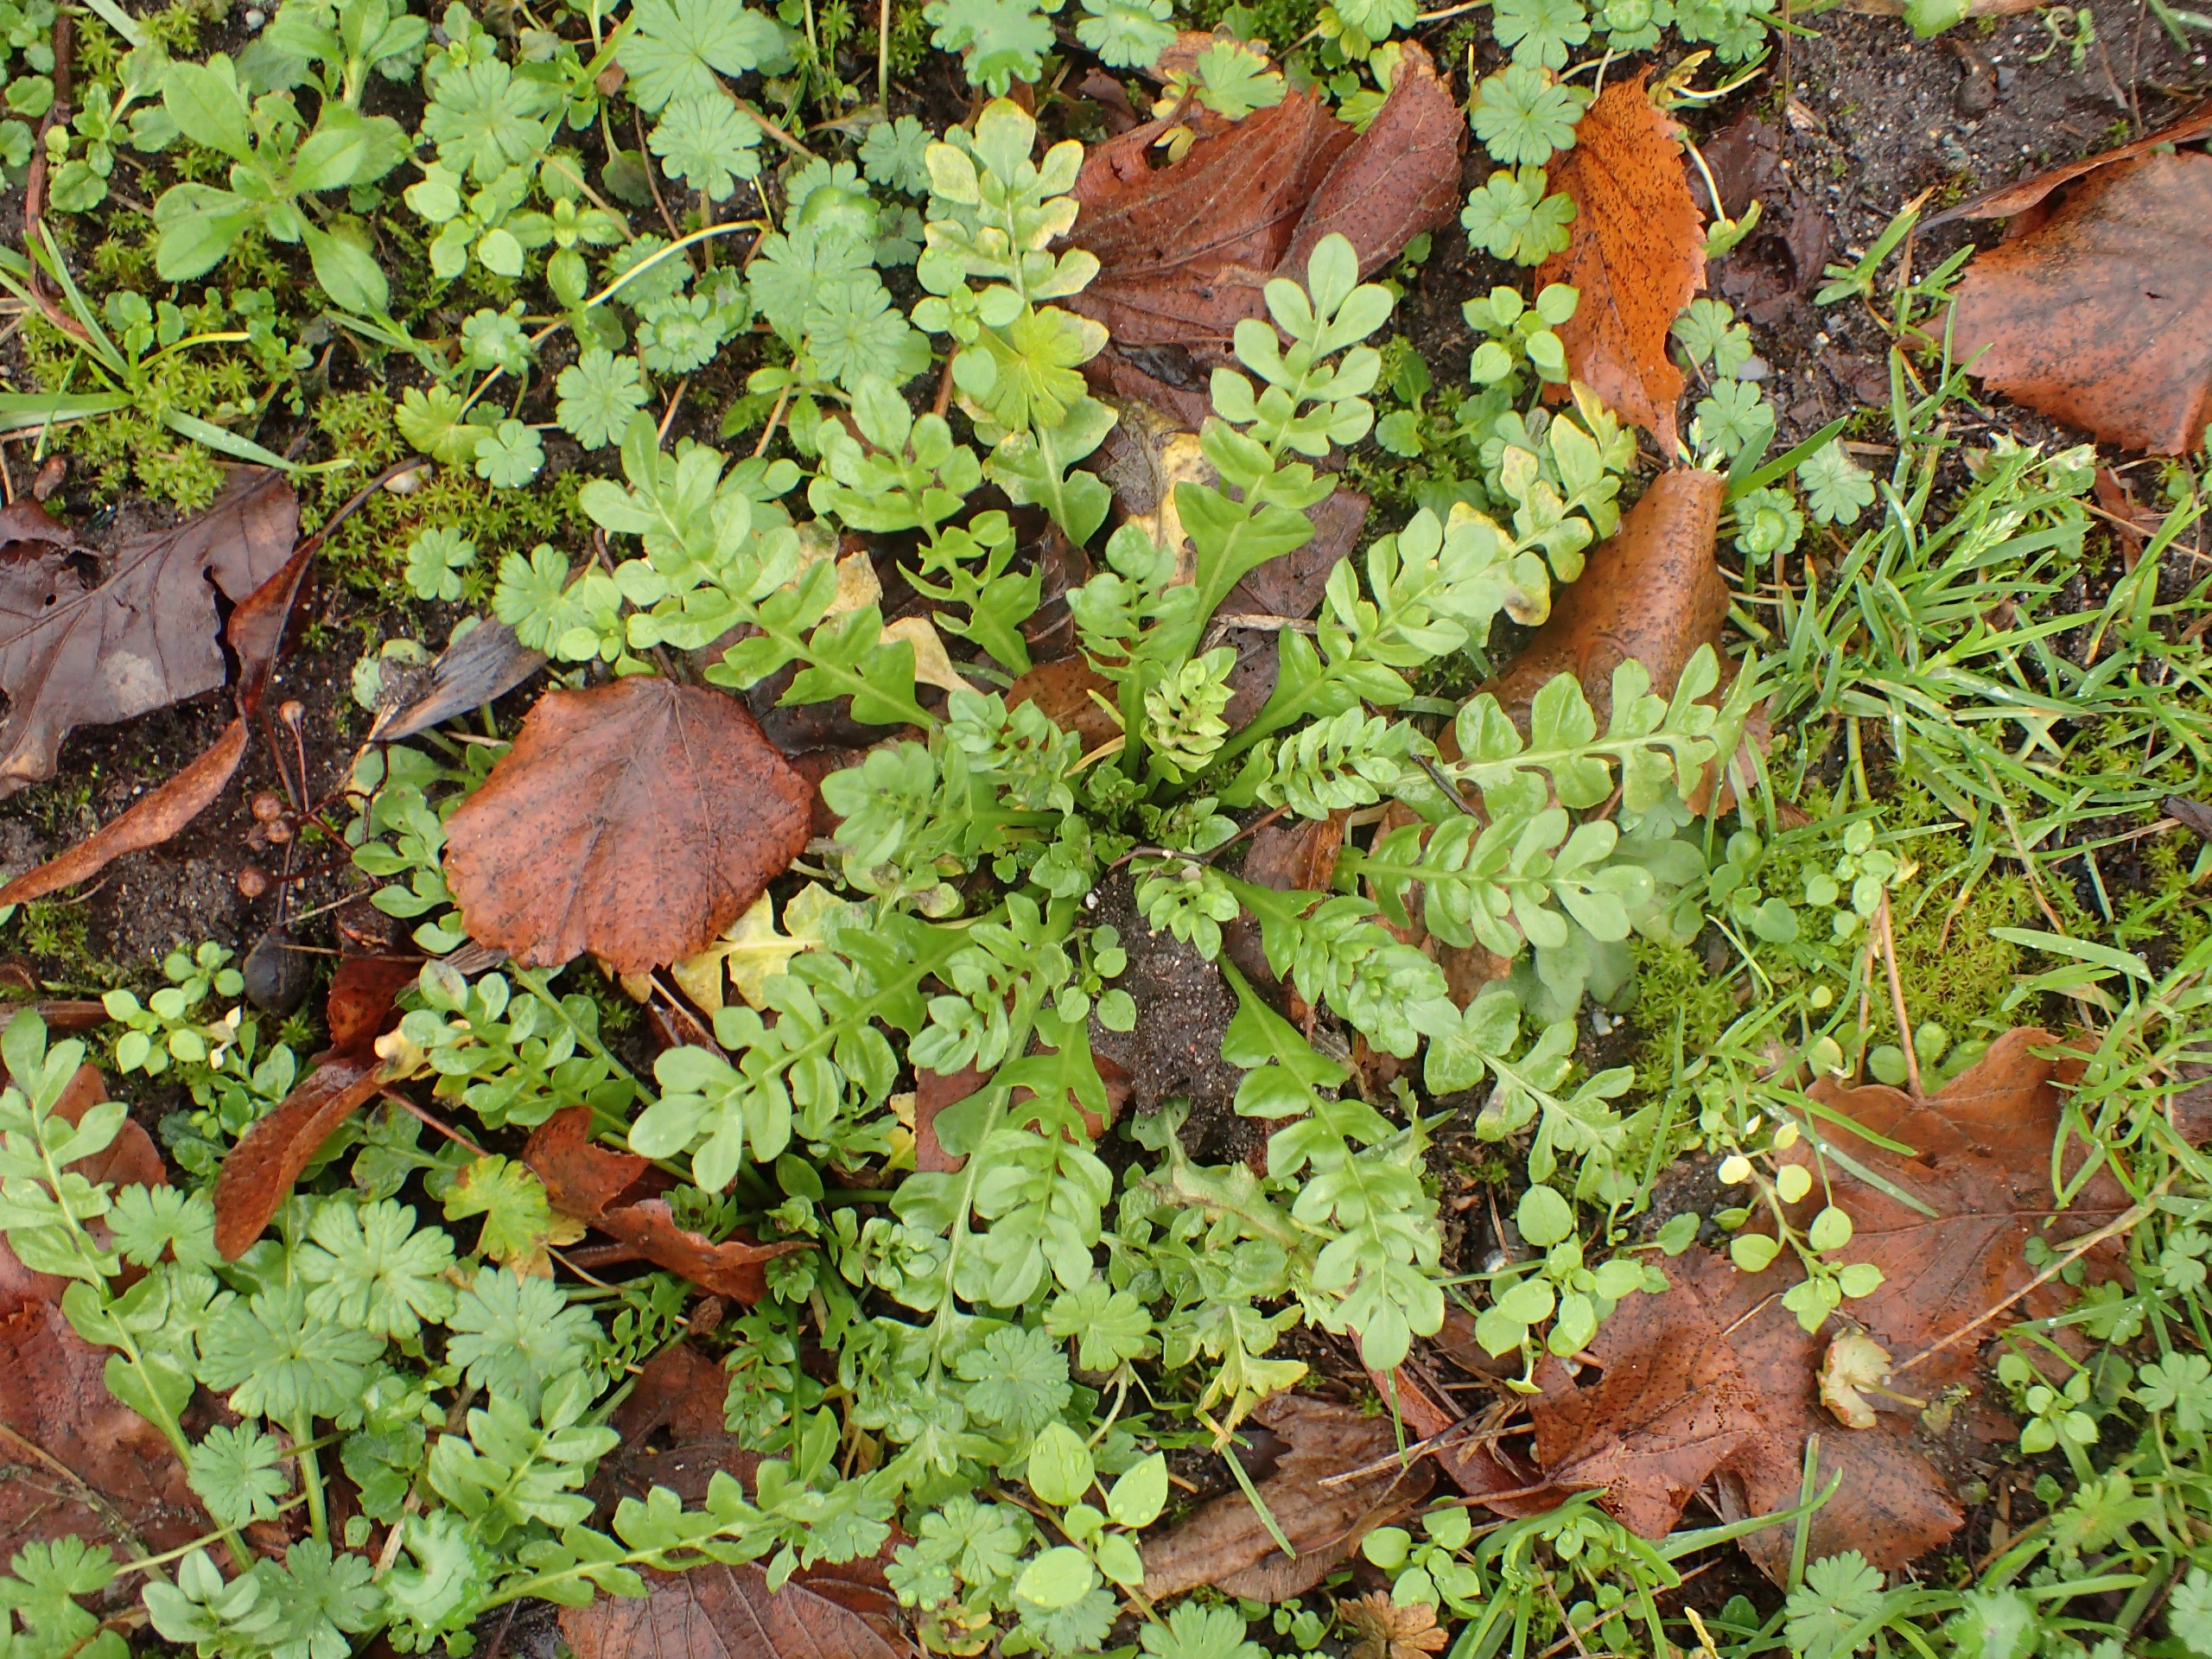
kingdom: Plantae
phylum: Tracheophyta
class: Magnoliopsida
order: Brassicales
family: Brassicaceae
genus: Capsella
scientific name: Capsella bursa-pastoris
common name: Hyrdetaske
